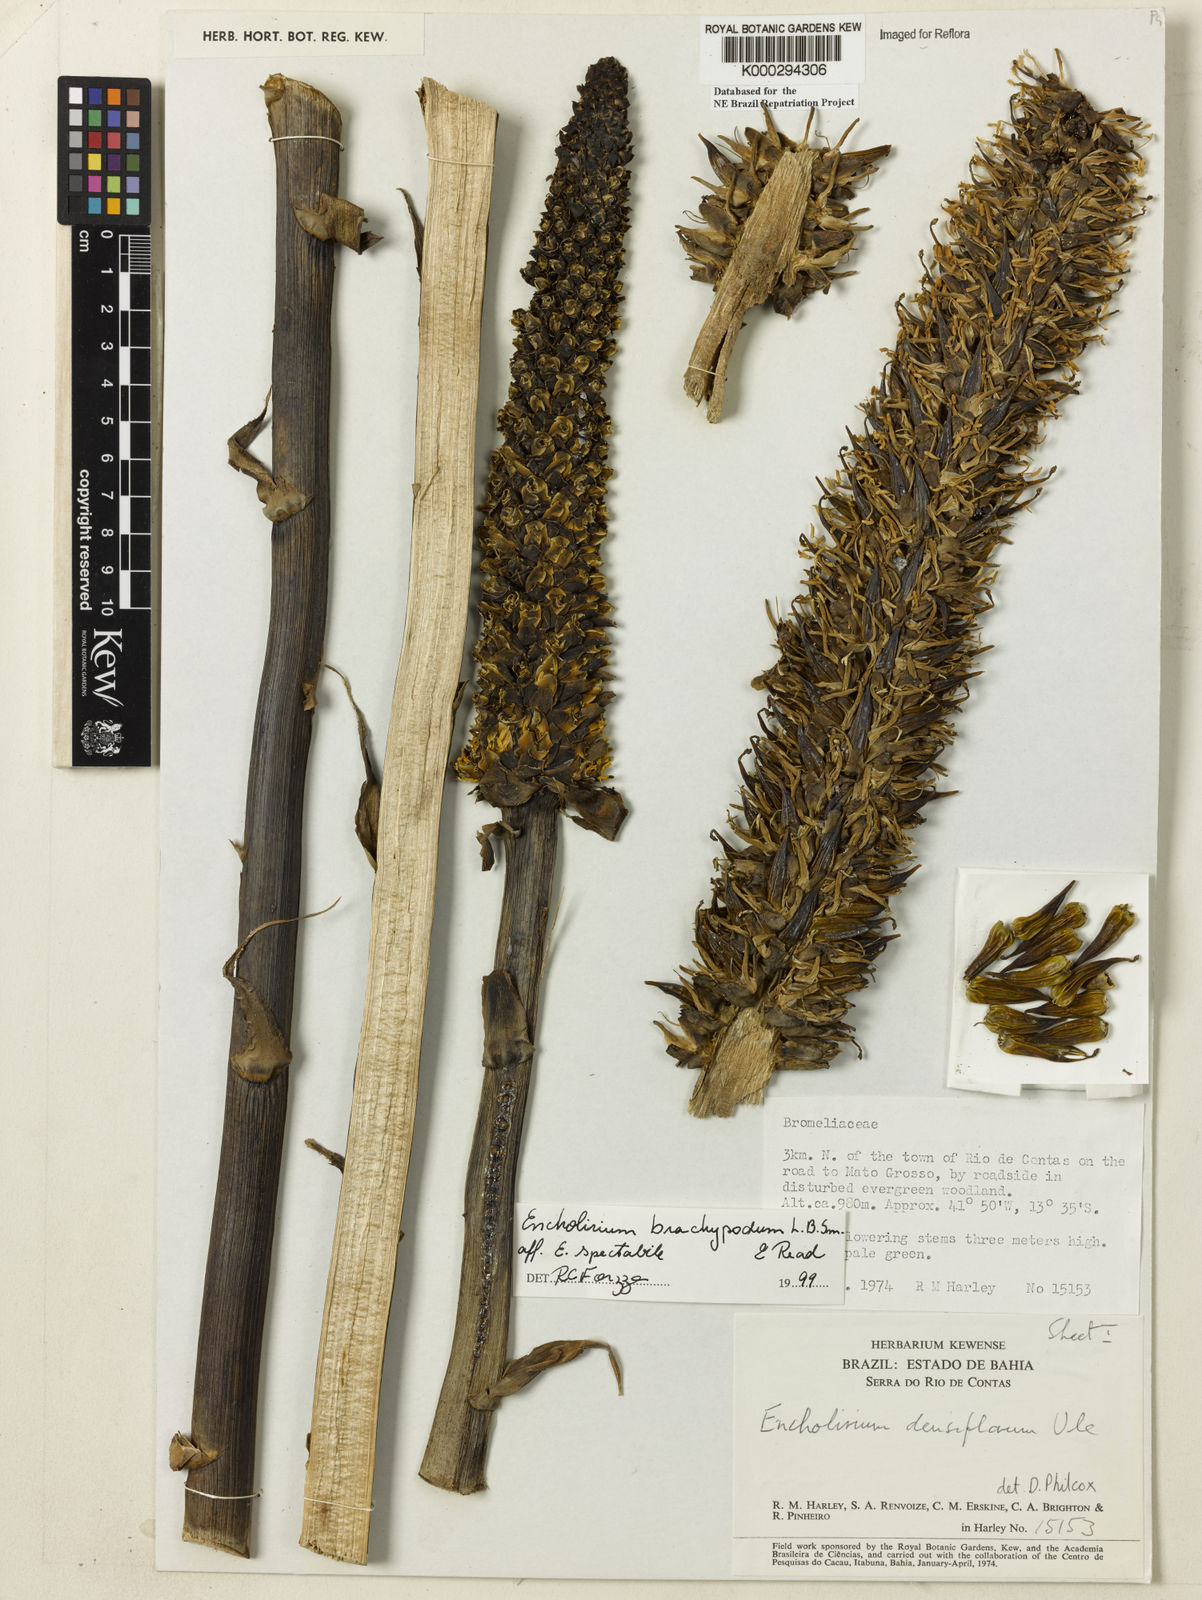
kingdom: Plantae
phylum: Tracheophyta
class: Liliopsida
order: Poales
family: Bromeliaceae
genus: Encholirium
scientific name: Encholirium brachypodum
